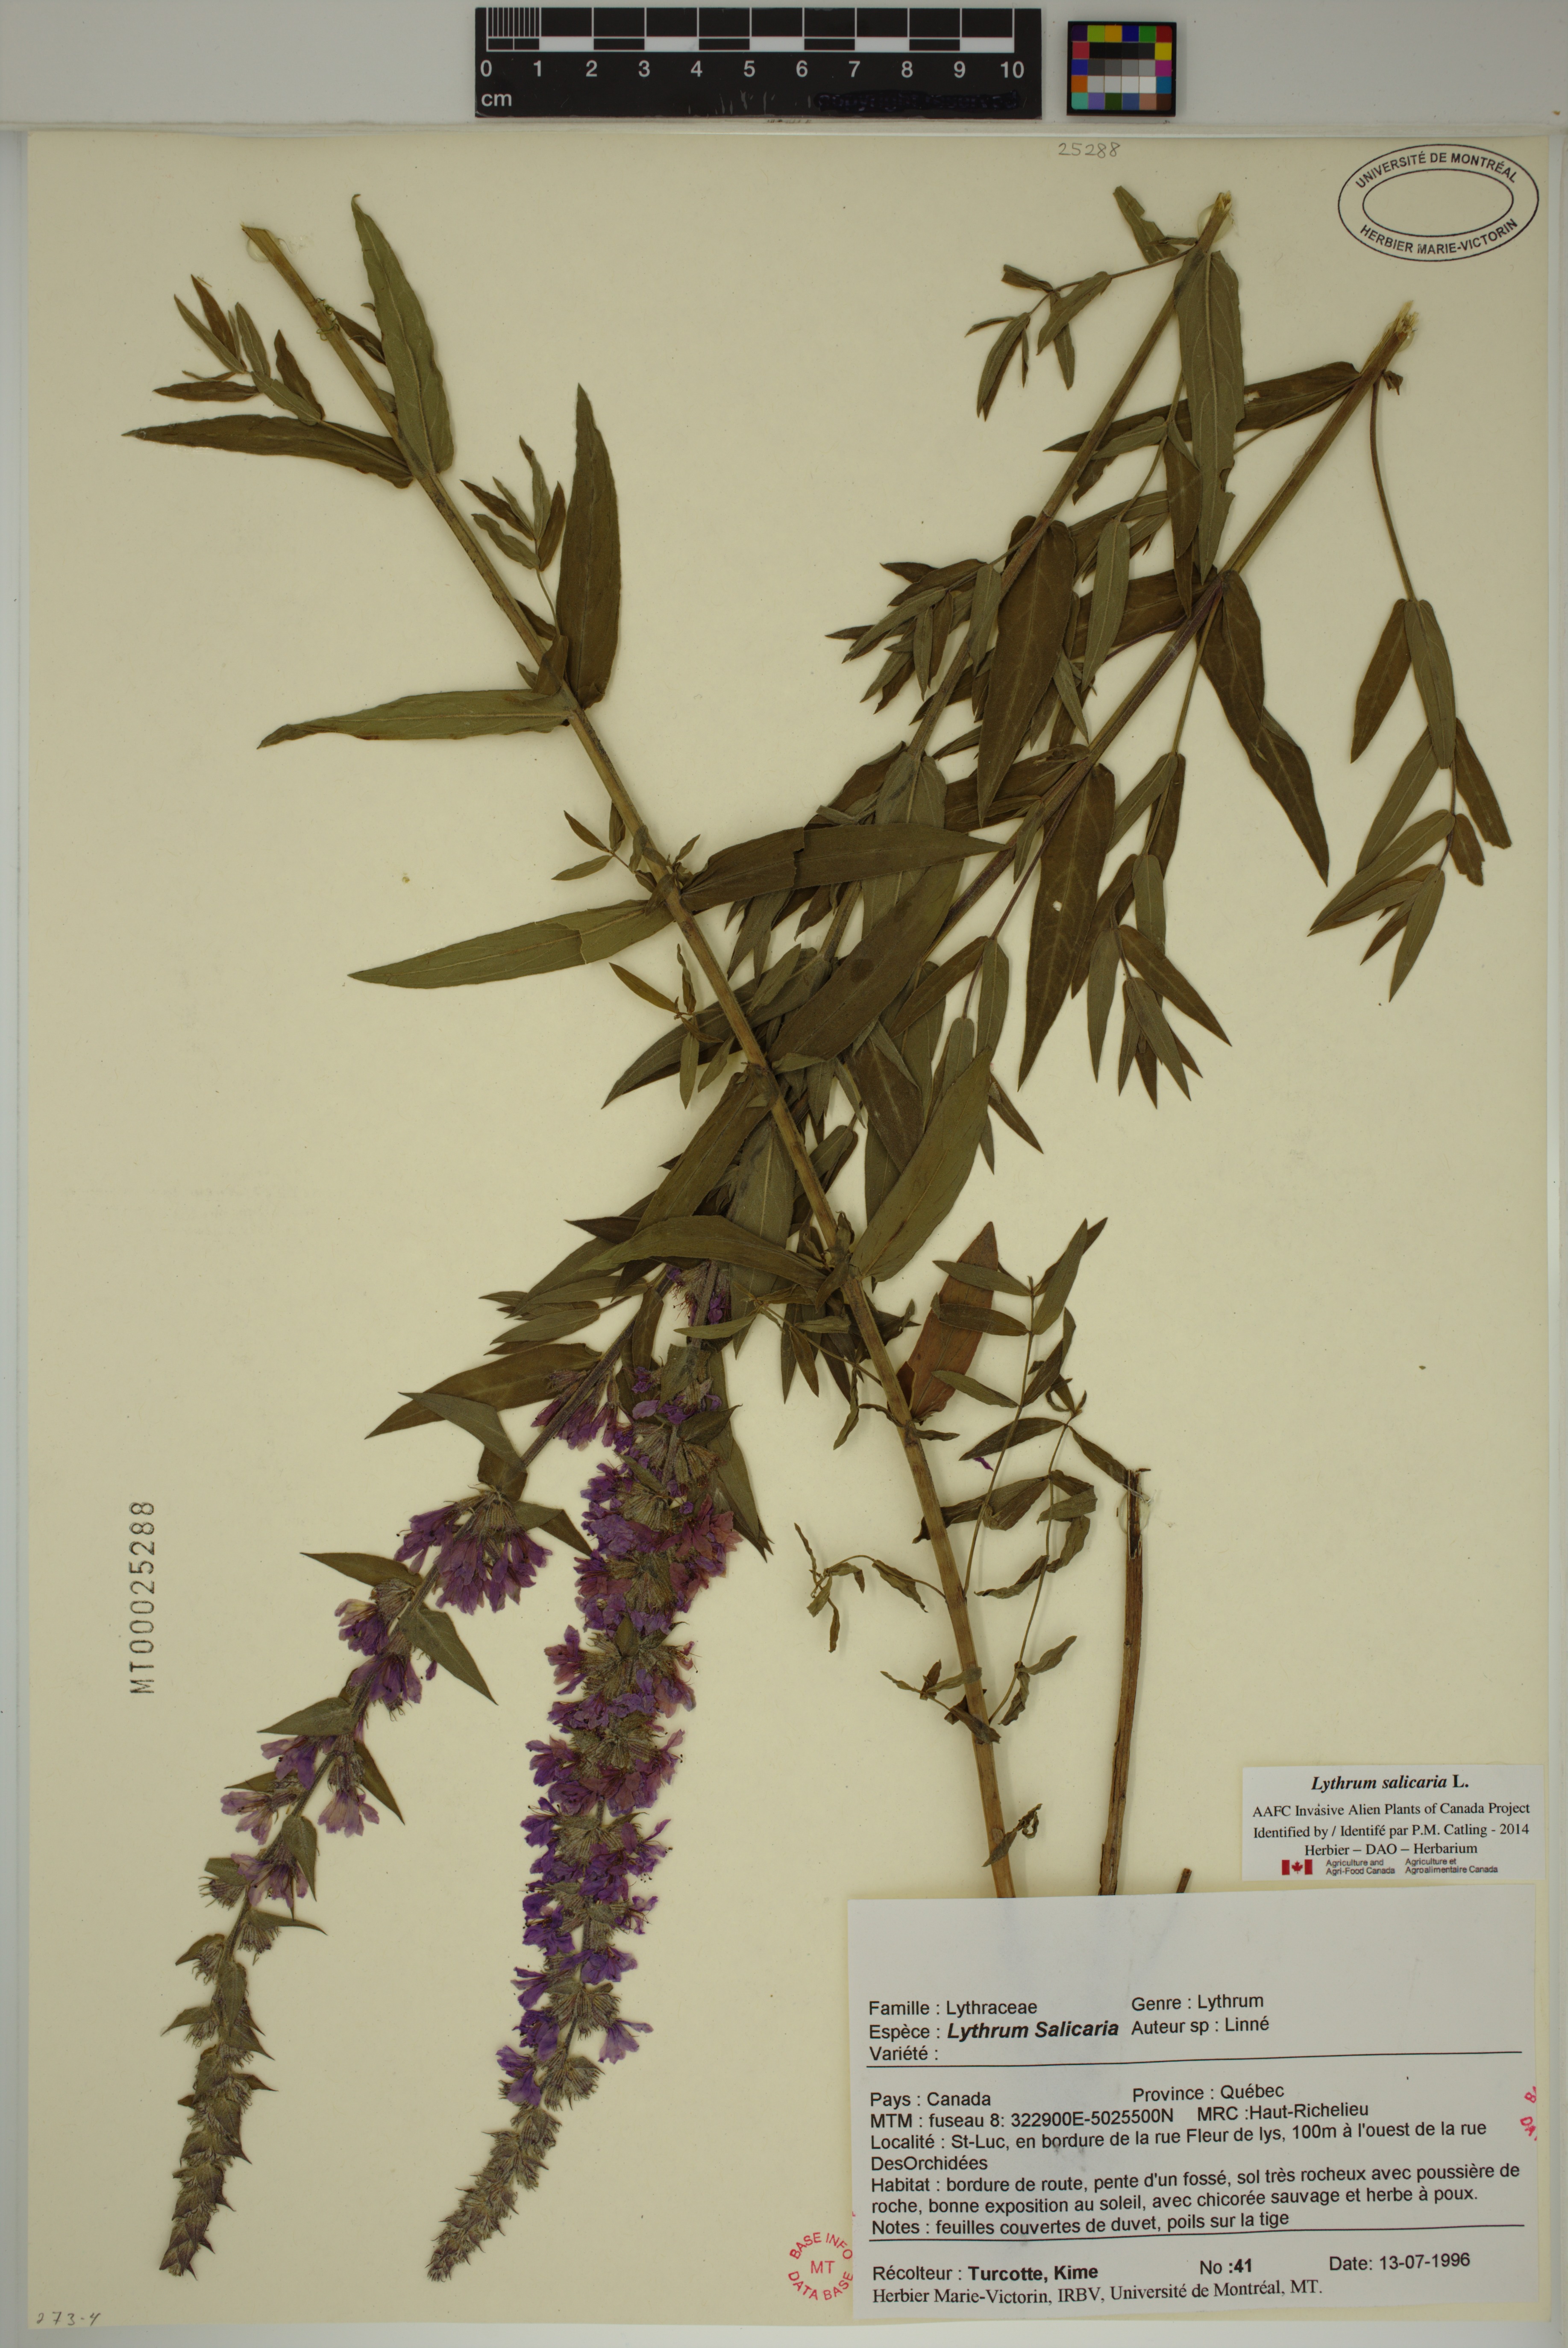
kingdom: Plantae
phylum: Tracheophyta
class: Magnoliopsida
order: Myrtales
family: Lythraceae
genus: Lythrum
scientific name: Lythrum salicaria
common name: Purple loosestrife
